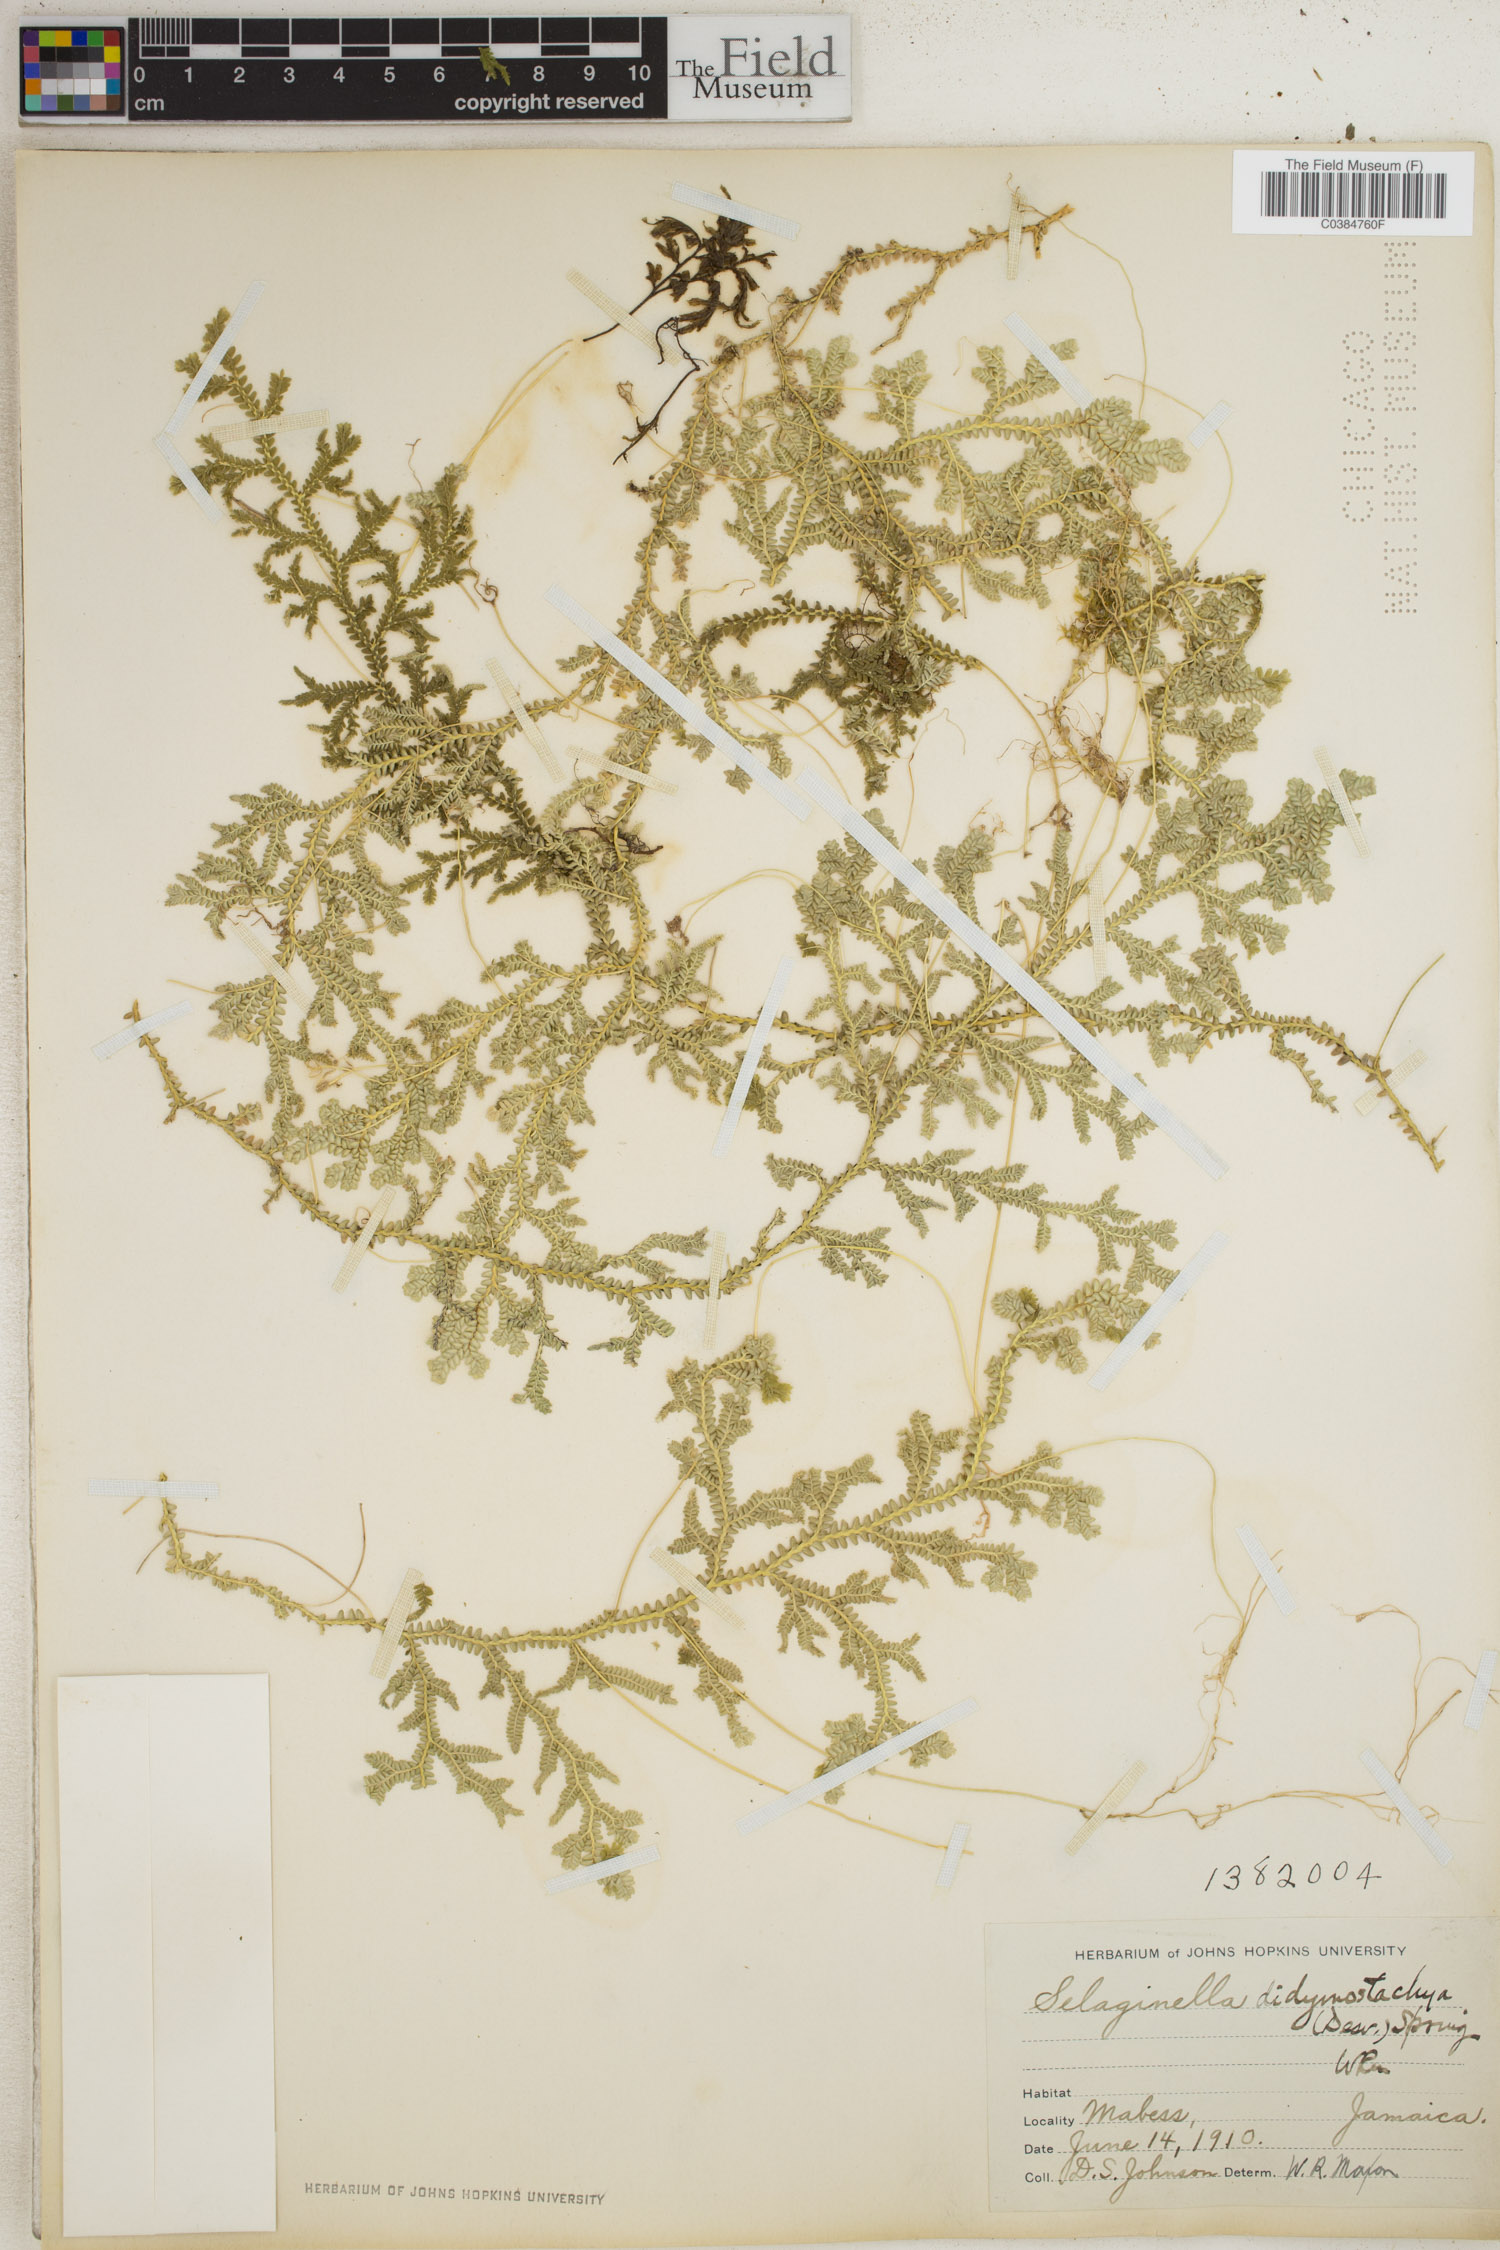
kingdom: Plantae
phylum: Tracheophyta
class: Lycopodiopsida
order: Selaginellales
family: Selaginellaceae
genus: Selaginella
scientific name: Selaginella denudata
